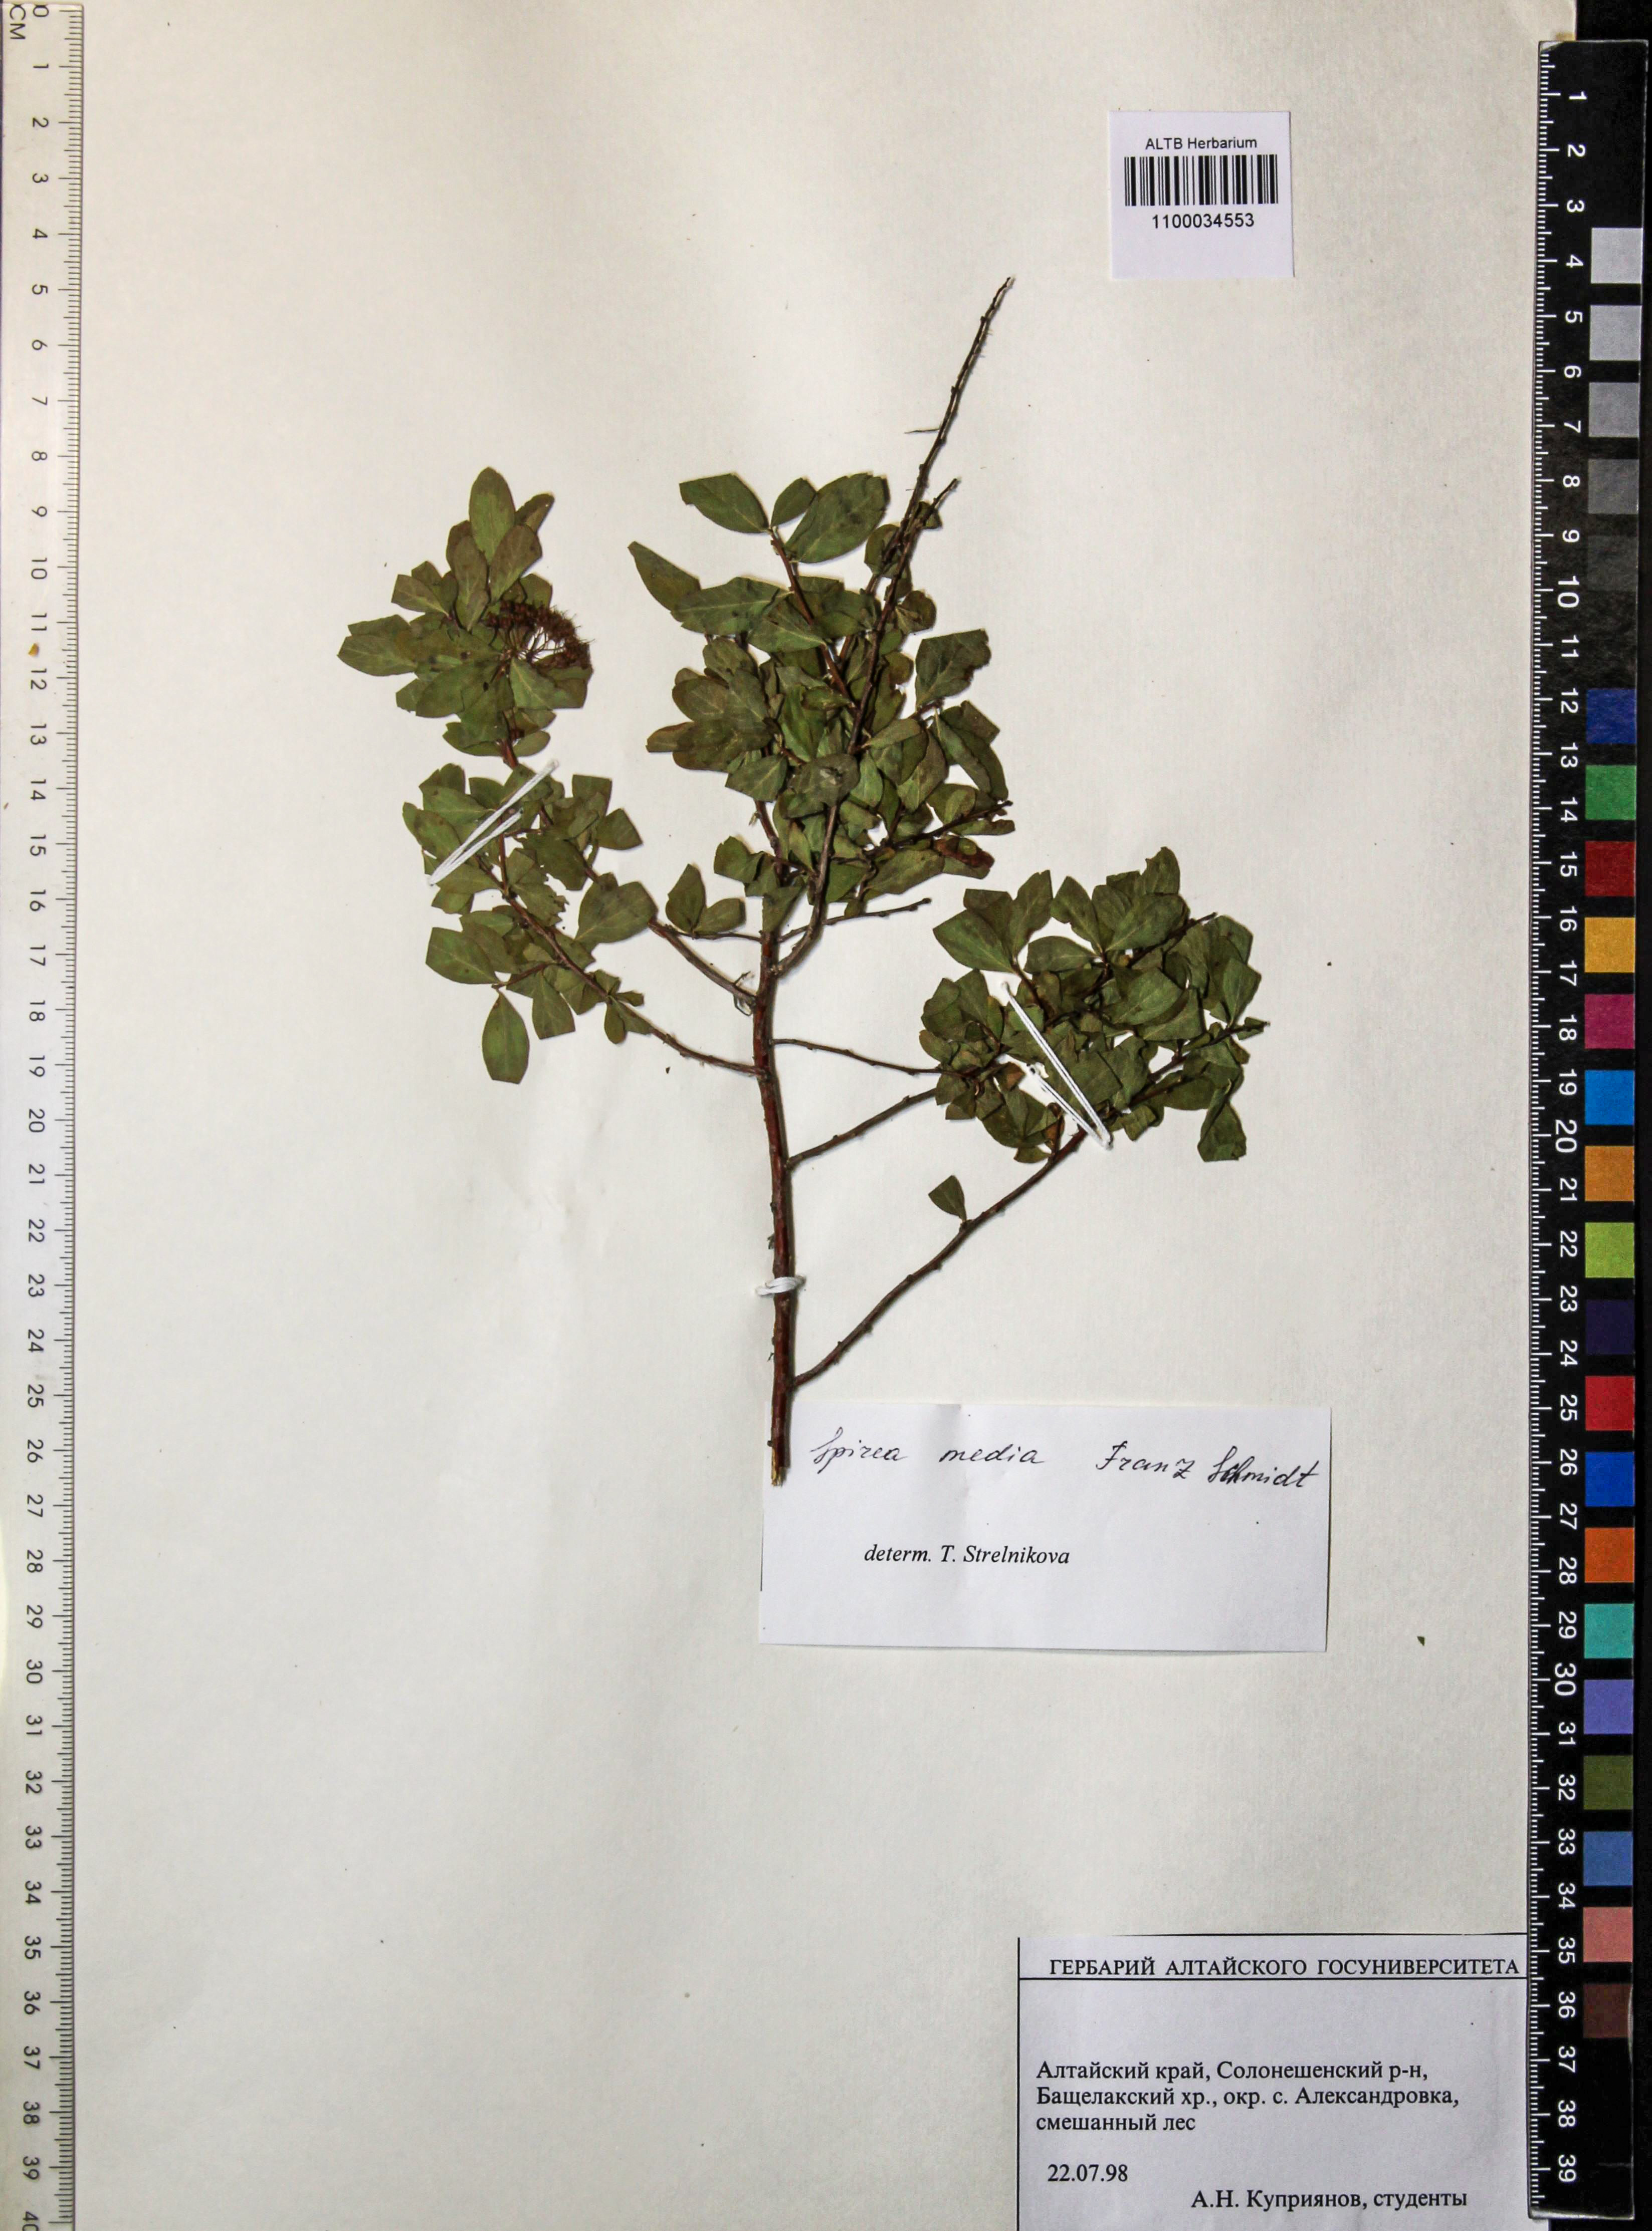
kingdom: Plantae
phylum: Tracheophyta
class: Magnoliopsida
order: Rosales
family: Rosaceae
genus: Spiraea
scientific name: Spiraea media
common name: Russian spiraea
